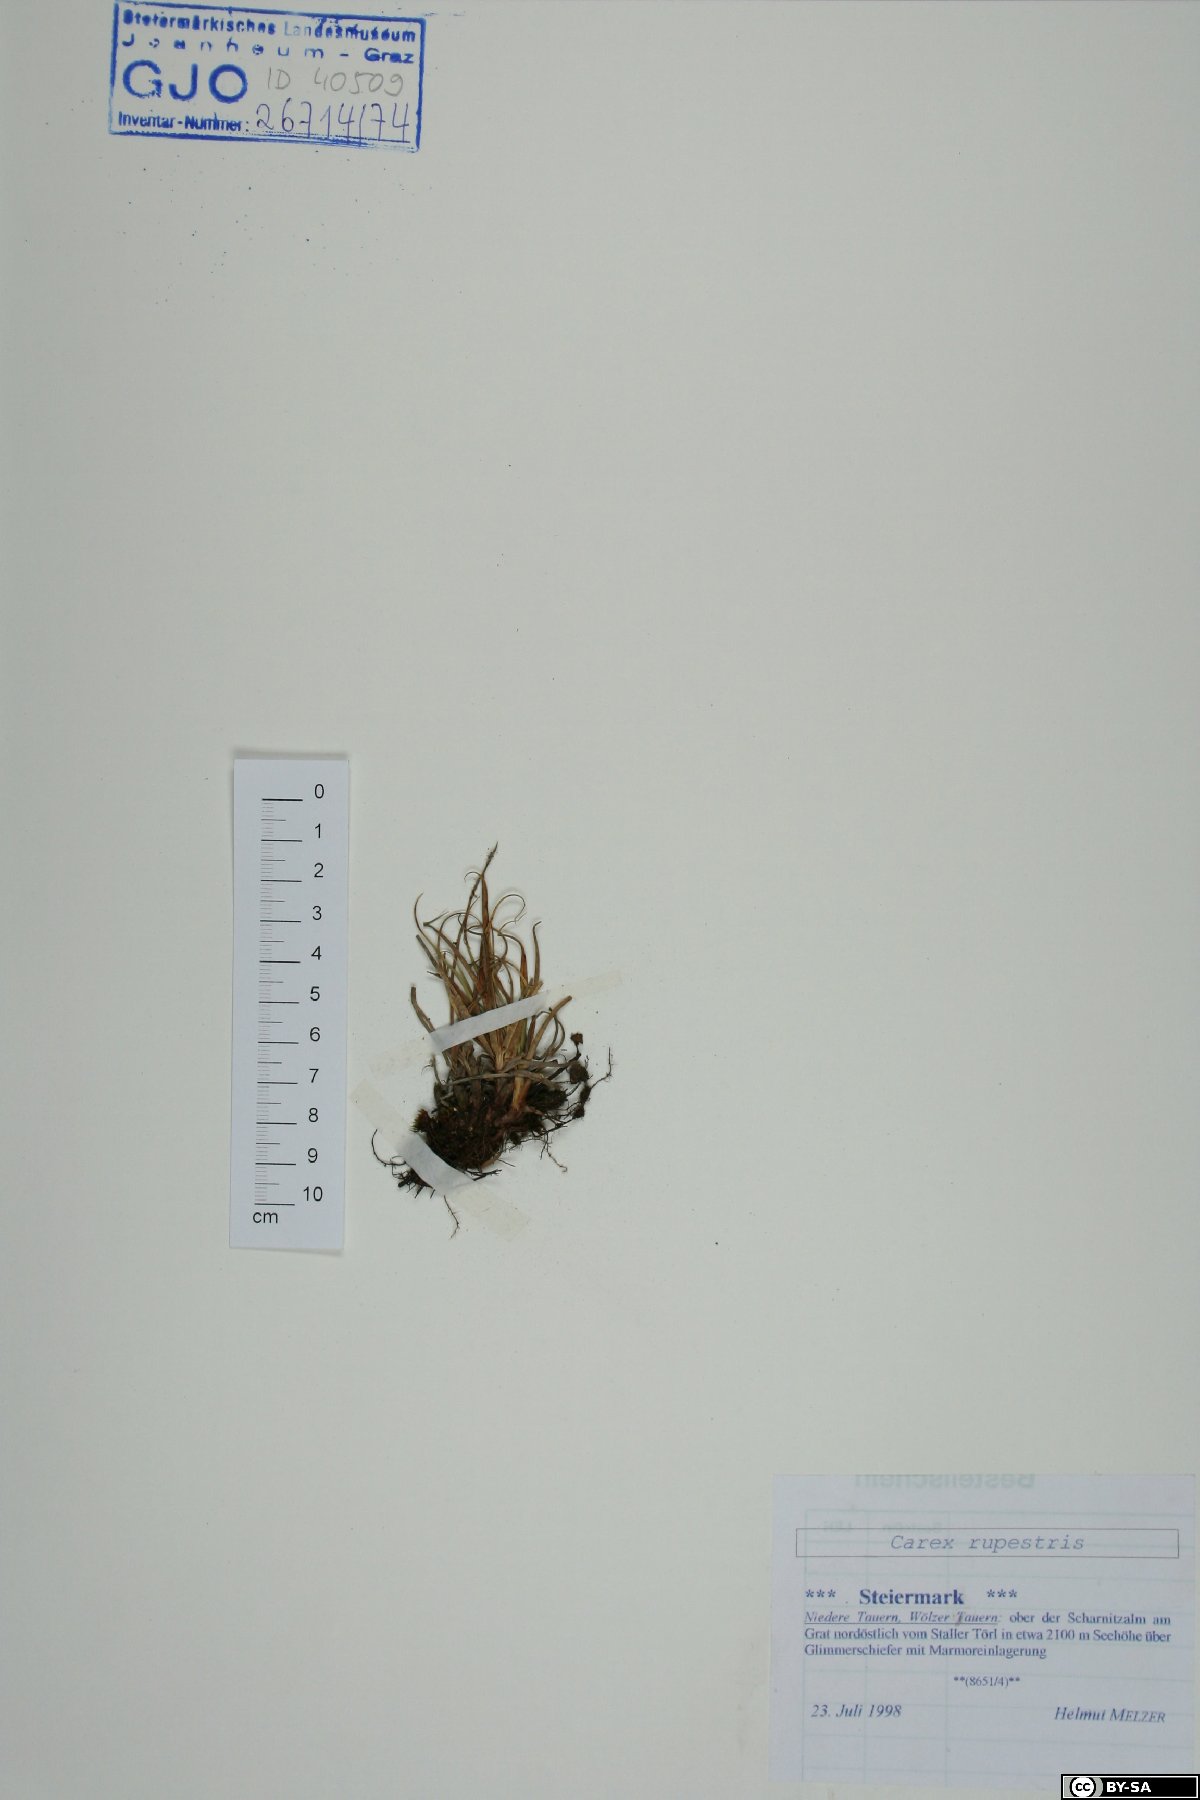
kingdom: Plantae
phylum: Tracheophyta
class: Liliopsida
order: Poales
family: Cyperaceae
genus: Carex
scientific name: Carex rupestris
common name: Rock sedge
